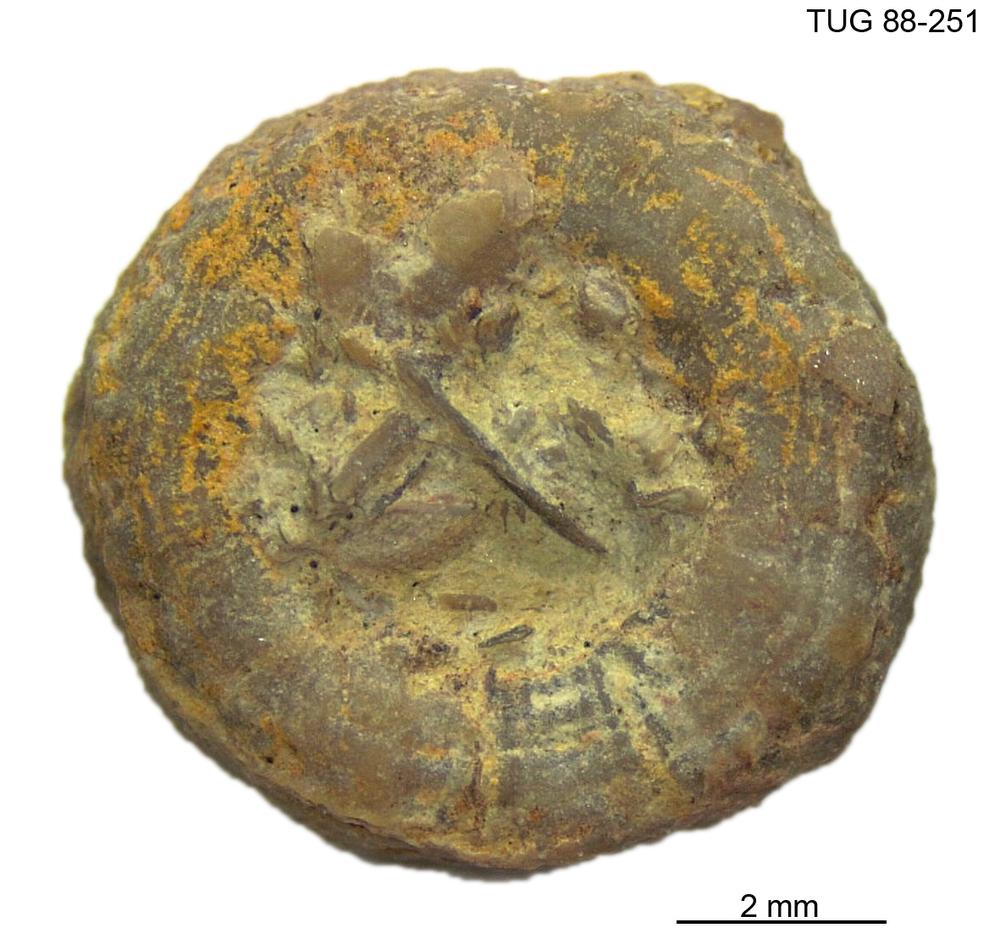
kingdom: Animalia
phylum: Echinodermata
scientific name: Echinodermata
